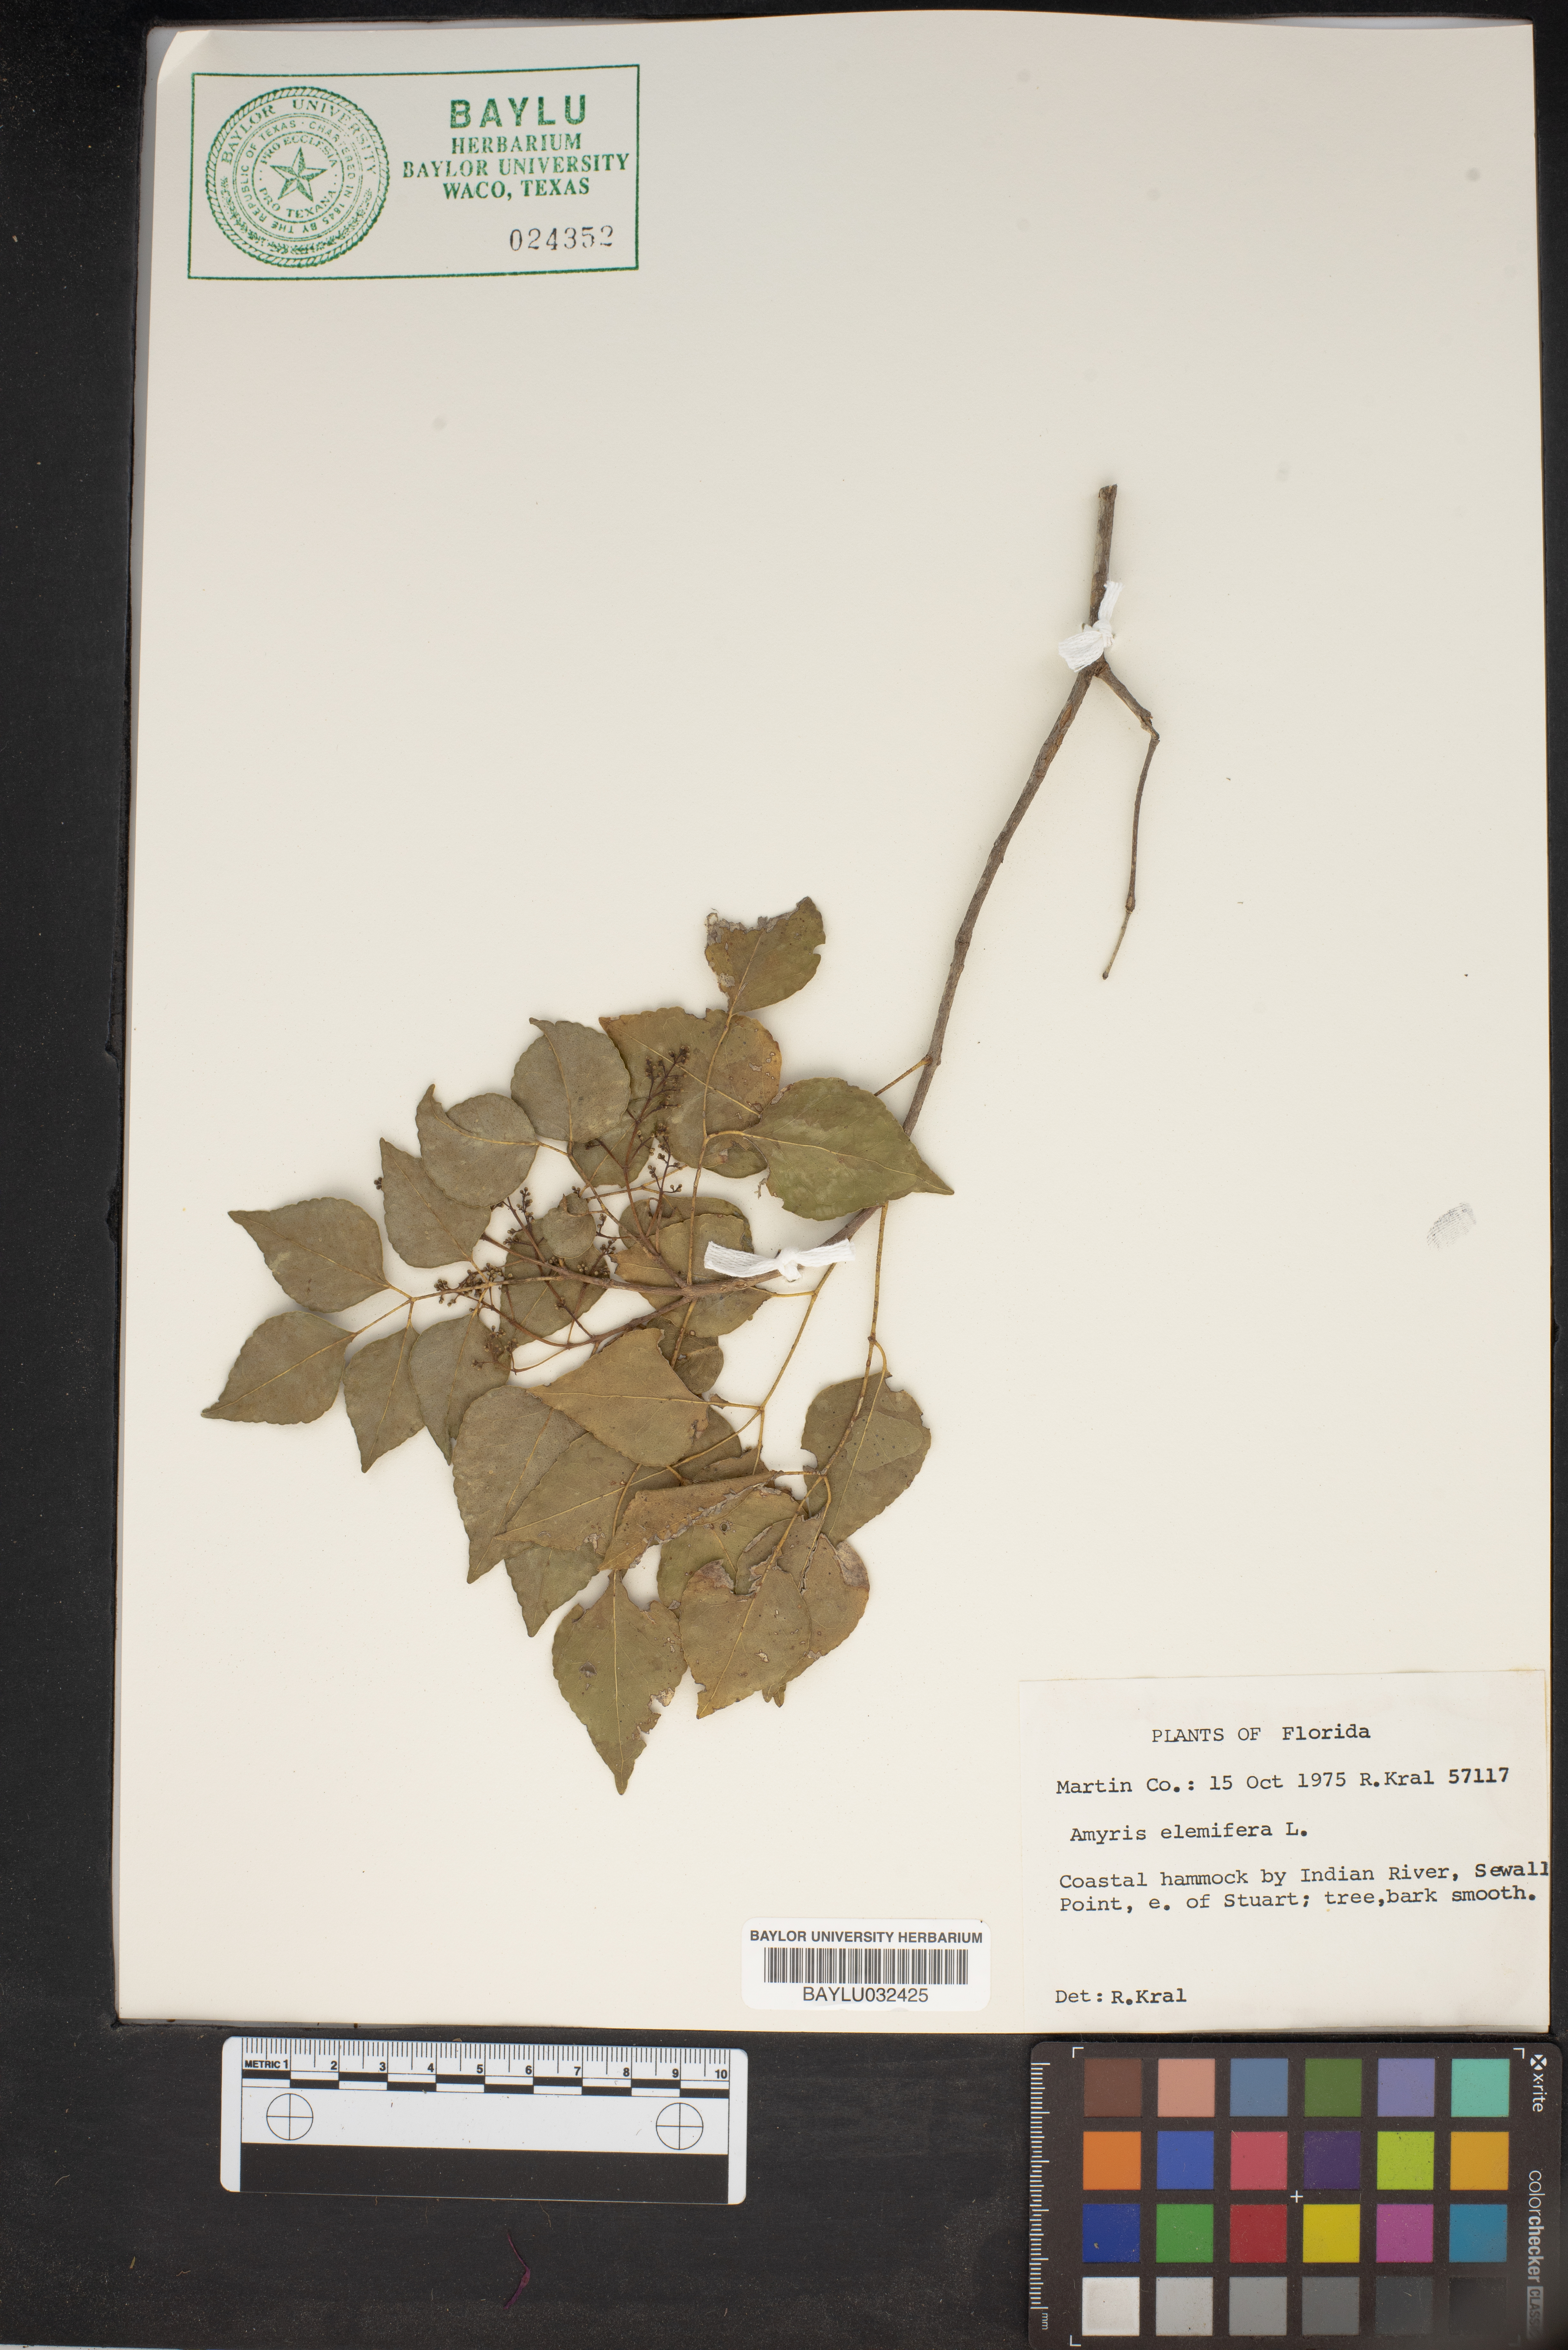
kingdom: Plantae
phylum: Tracheophyta
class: Magnoliopsida
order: Sapindales
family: Rutaceae
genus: Amyris
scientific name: Amyris elemifera
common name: Sea amyris
